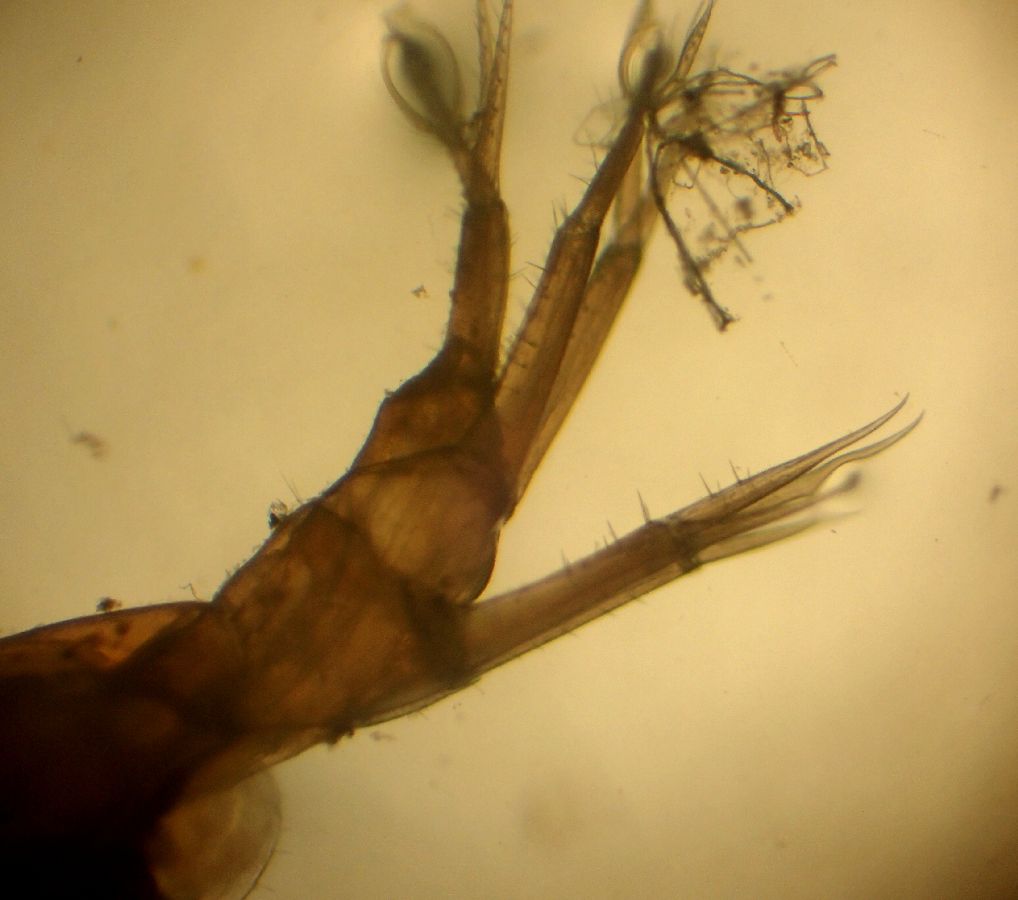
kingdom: Animalia
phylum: Arthropoda
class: Malacostraca
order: Amphipoda
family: Oedicerotidae
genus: Aceroides
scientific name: Aceroides latipes
